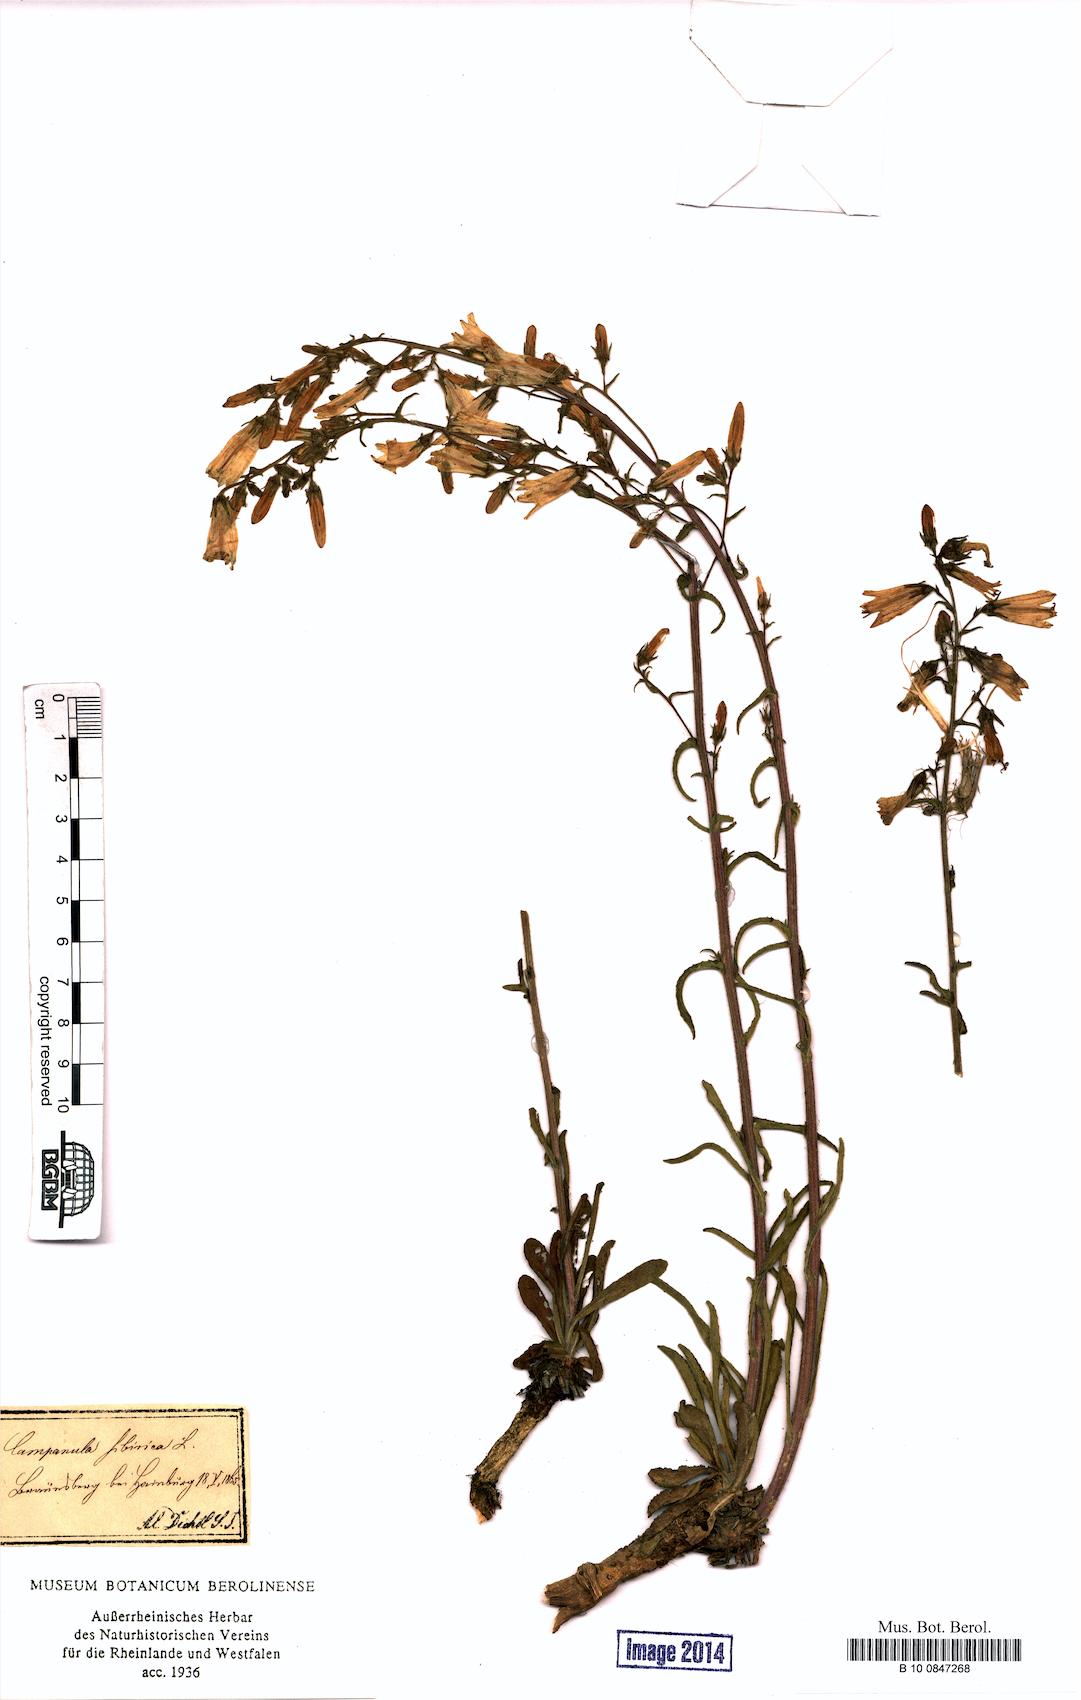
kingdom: Plantae
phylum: Tracheophyta
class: Magnoliopsida
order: Asterales
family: Campanulaceae
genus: Campanula
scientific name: Campanula sibirica
